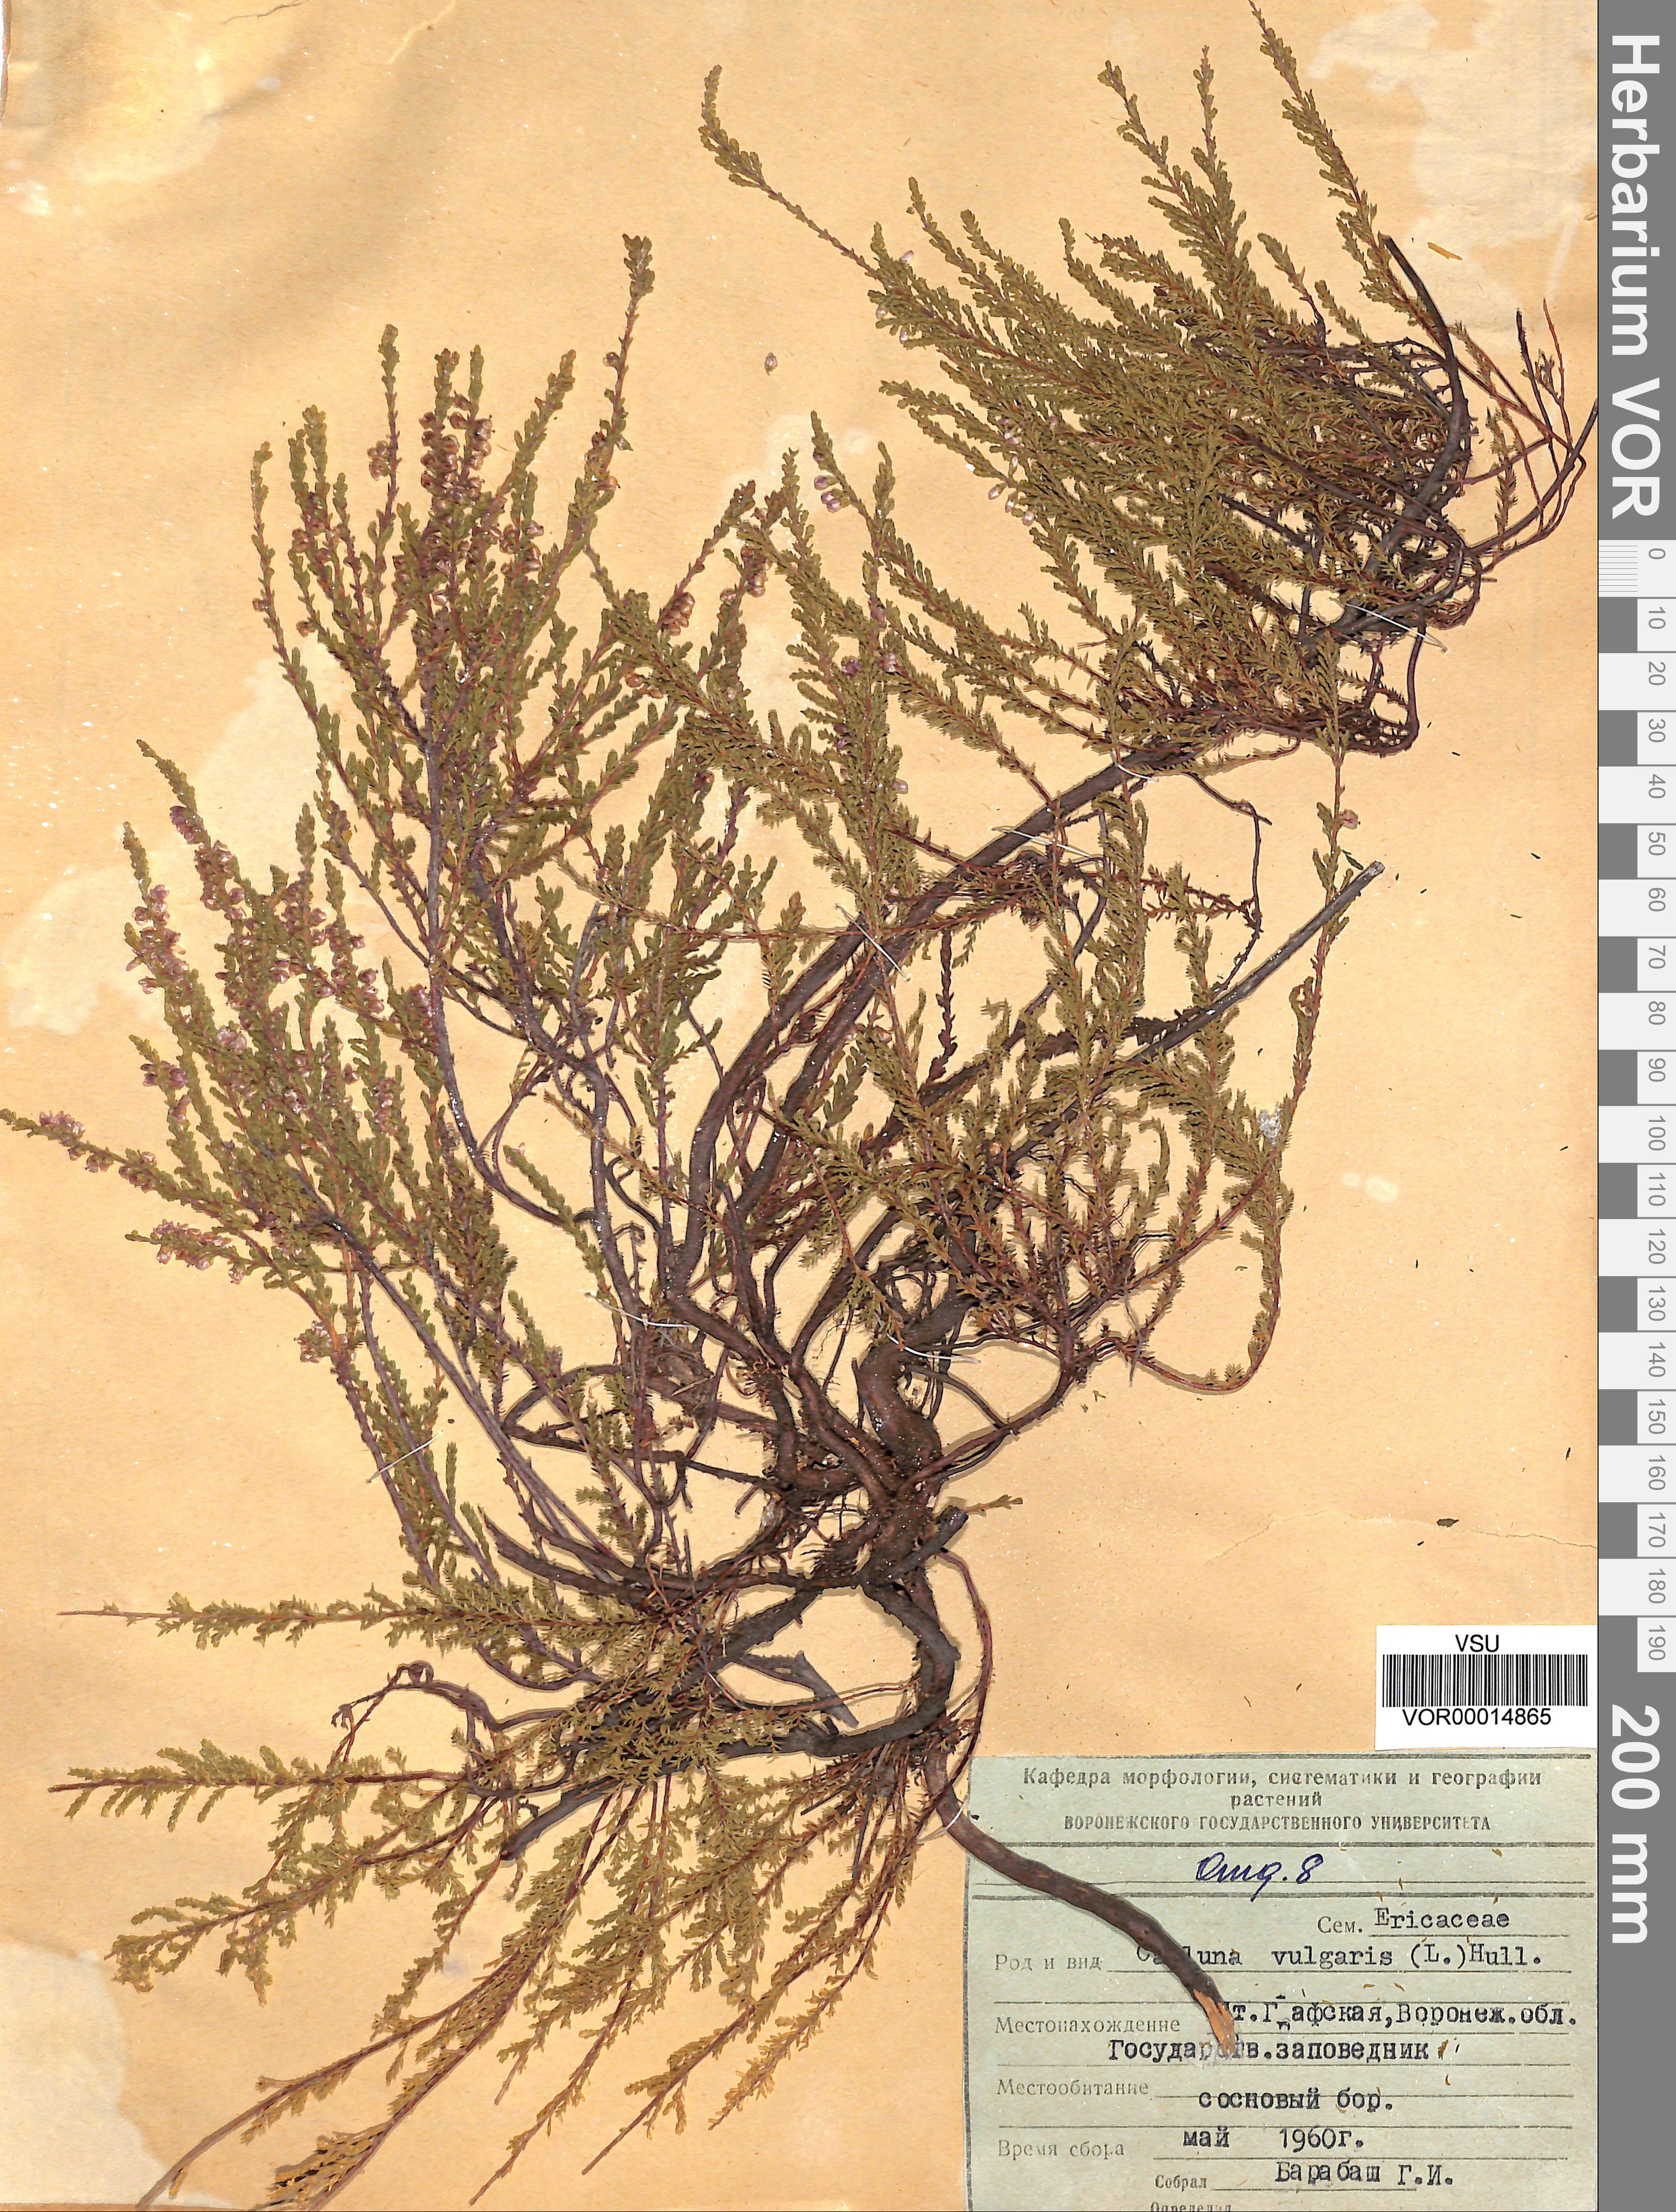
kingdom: Plantae
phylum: Tracheophyta
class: Magnoliopsida
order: Ericales
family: Ericaceae
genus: Calluna
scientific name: Calluna vulgaris
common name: Heather
